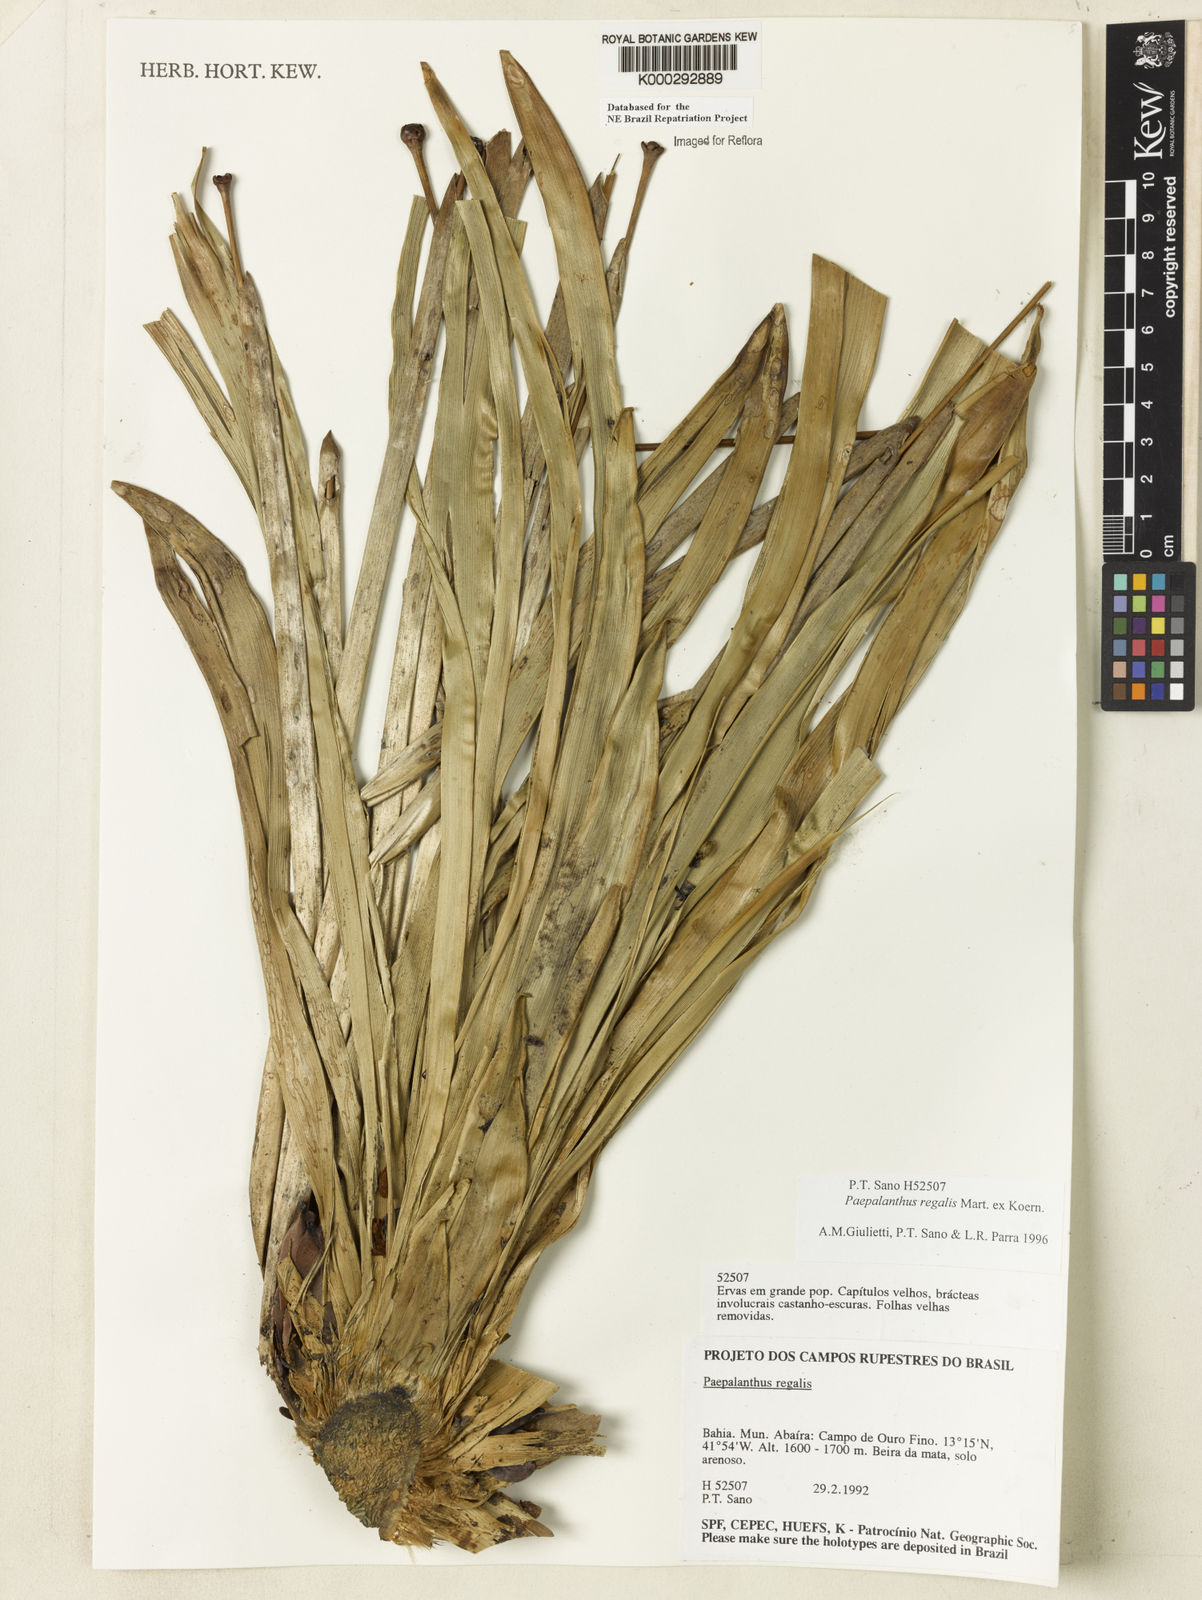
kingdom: Plantae
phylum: Tracheophyta
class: Liliopsida
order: Poales
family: Eriocaulaceae
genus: Paepalanthus
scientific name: Paepalanthus
